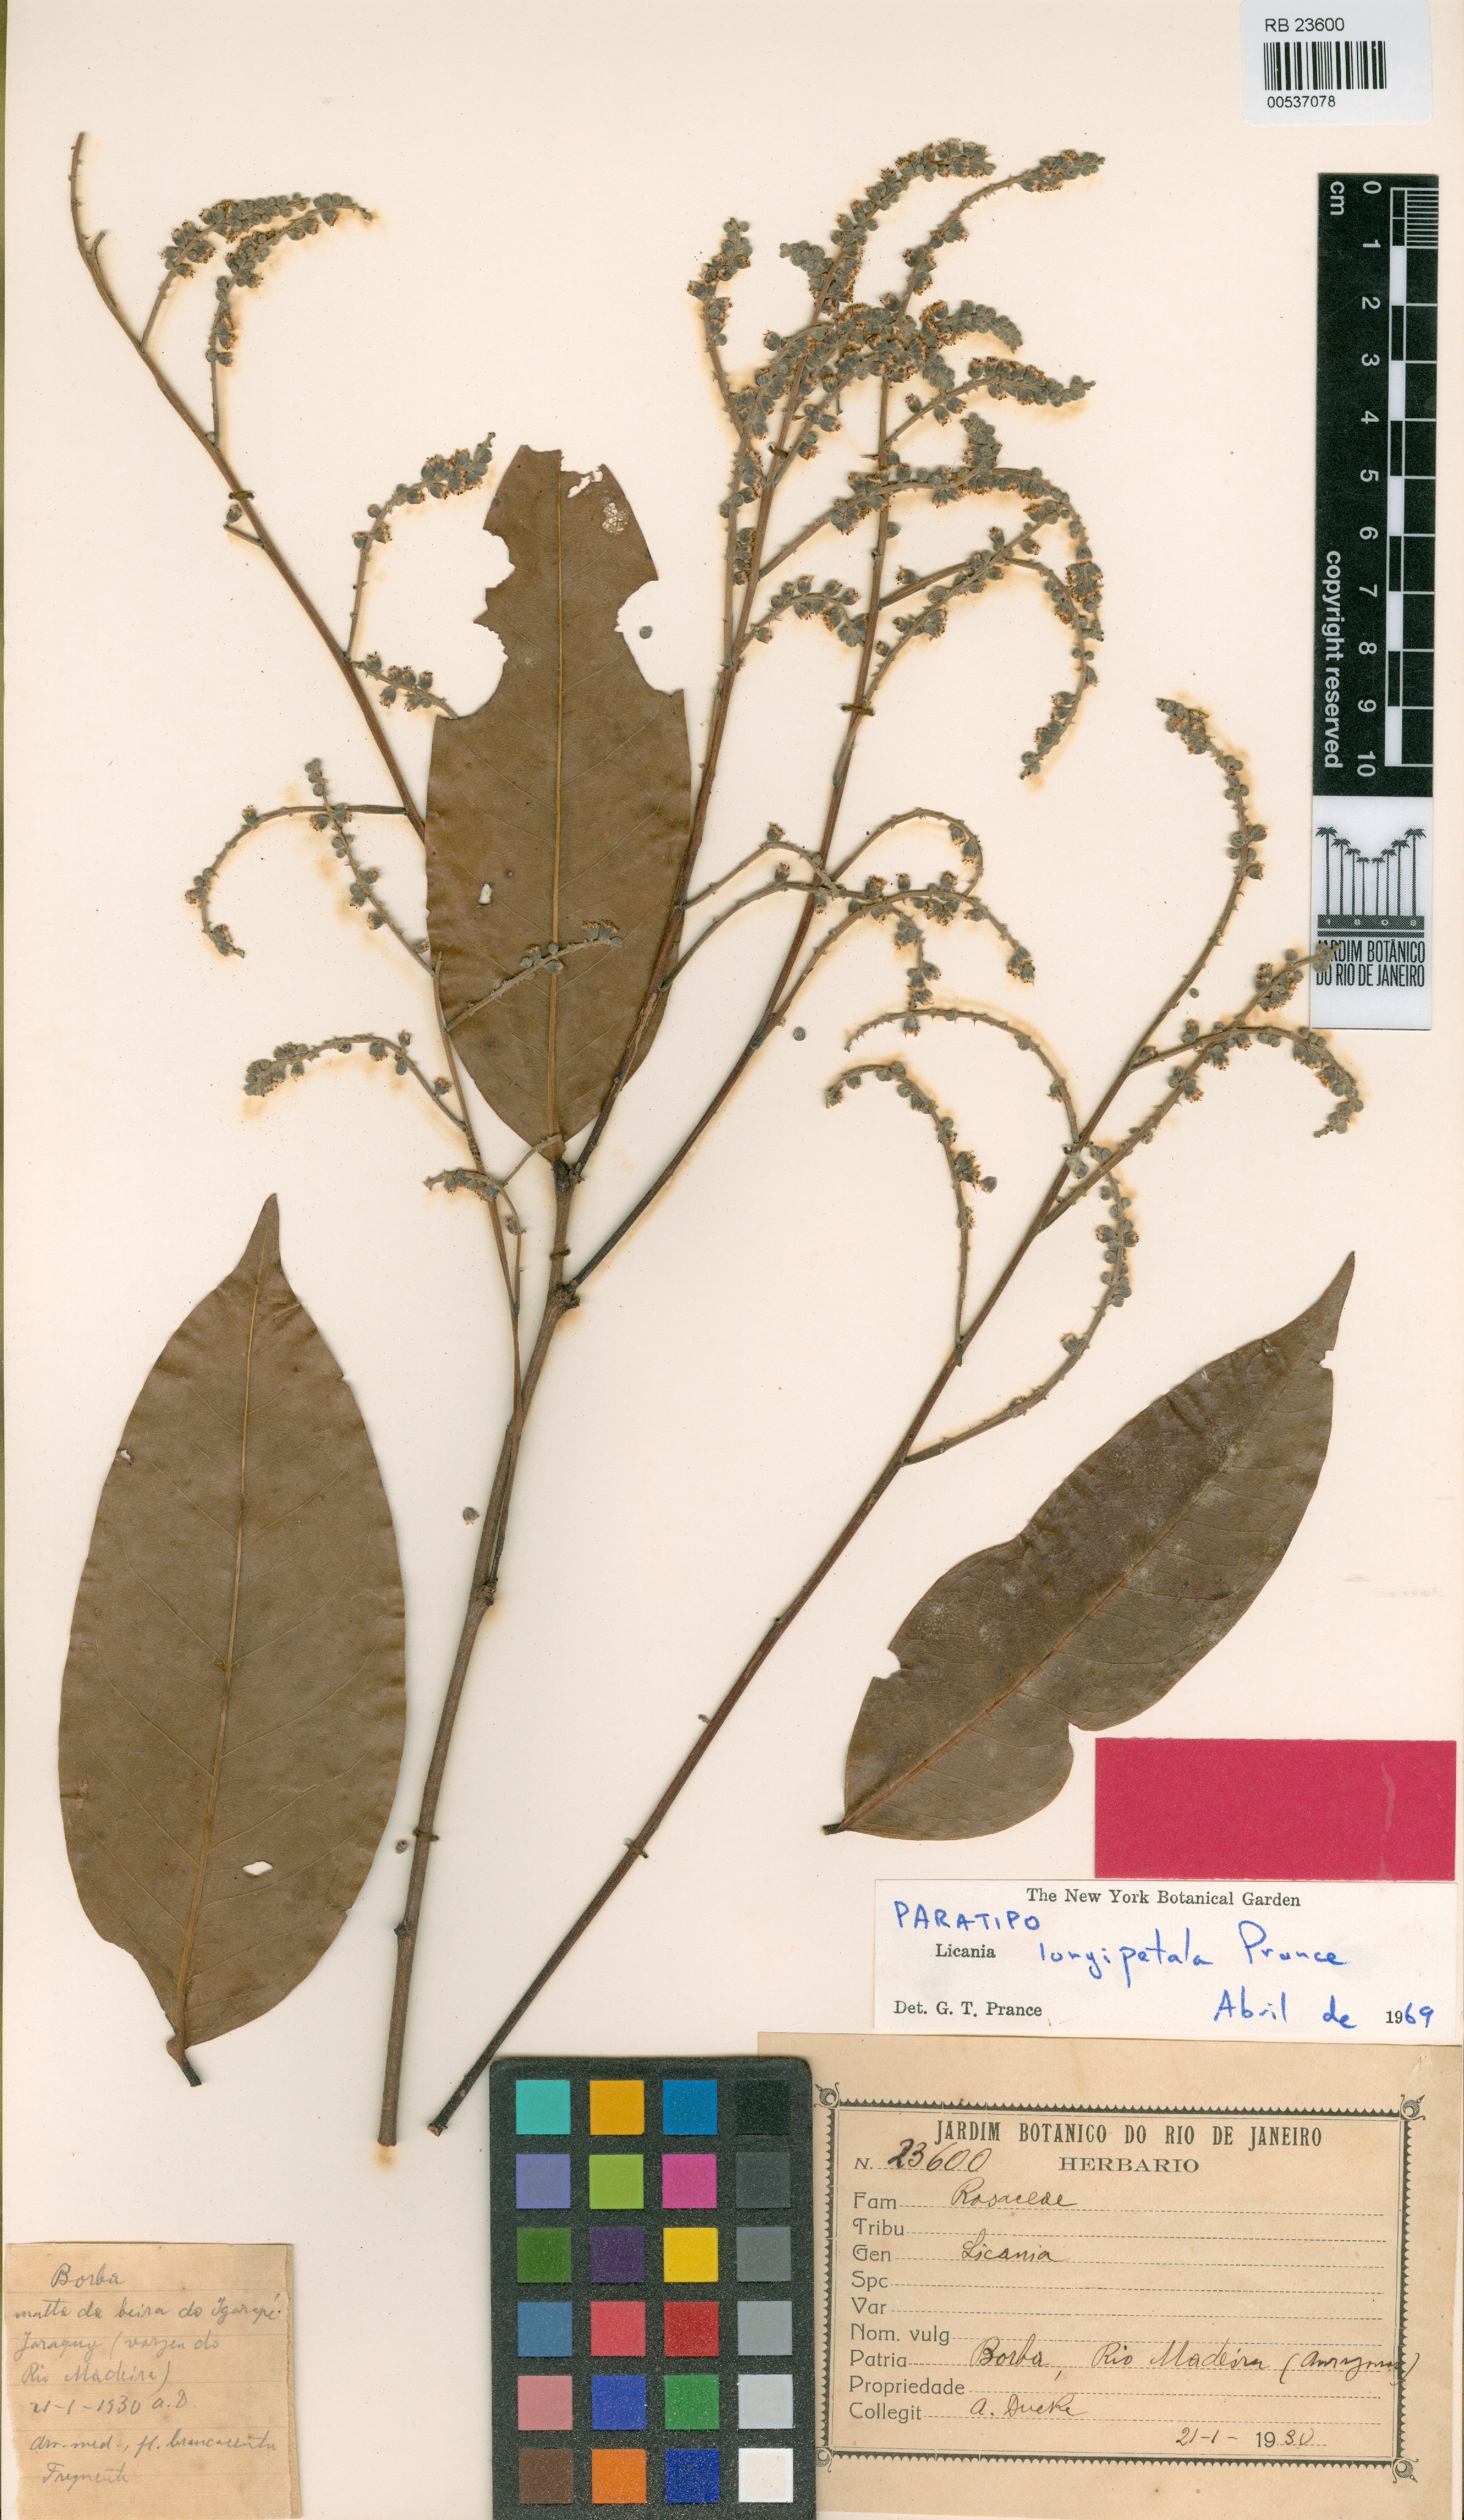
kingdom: Plantae
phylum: Tracheophyta
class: Magnoliopsida
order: Malpighiales
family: Chrysobalanaceae
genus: Moquilea
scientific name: Moquilea longipetala
